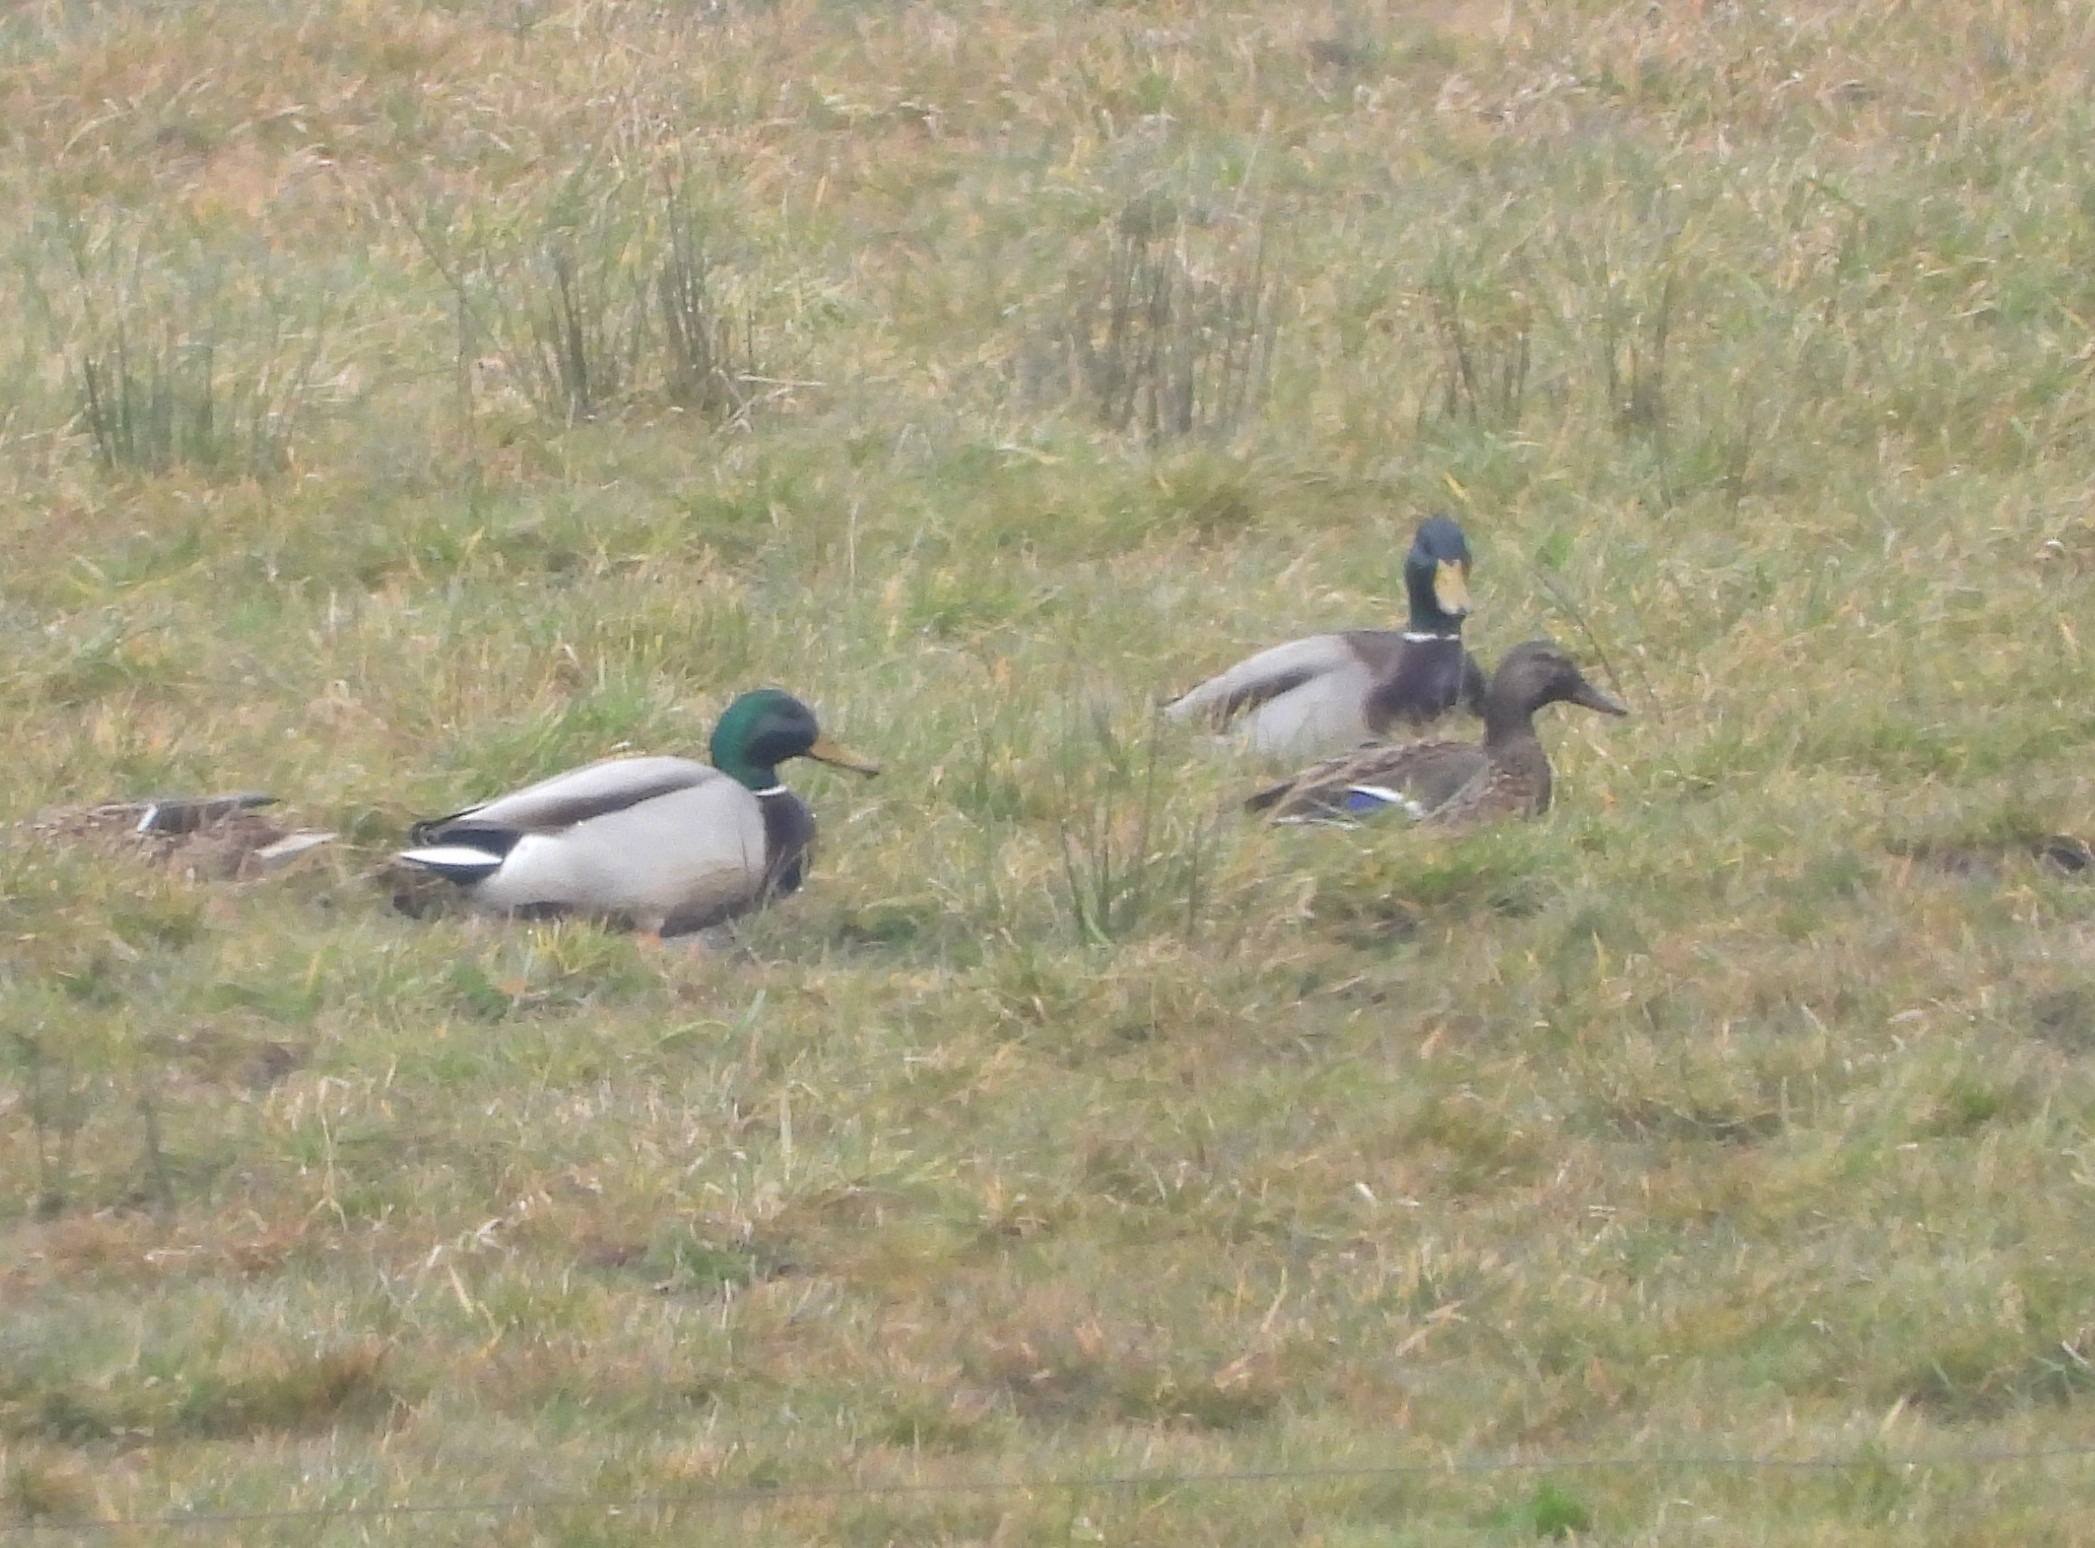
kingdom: Animalia
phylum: Chordata
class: Aves
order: Anseriformes
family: Anatidae
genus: Anas
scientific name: Anas platyrhynchos
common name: Gråand
